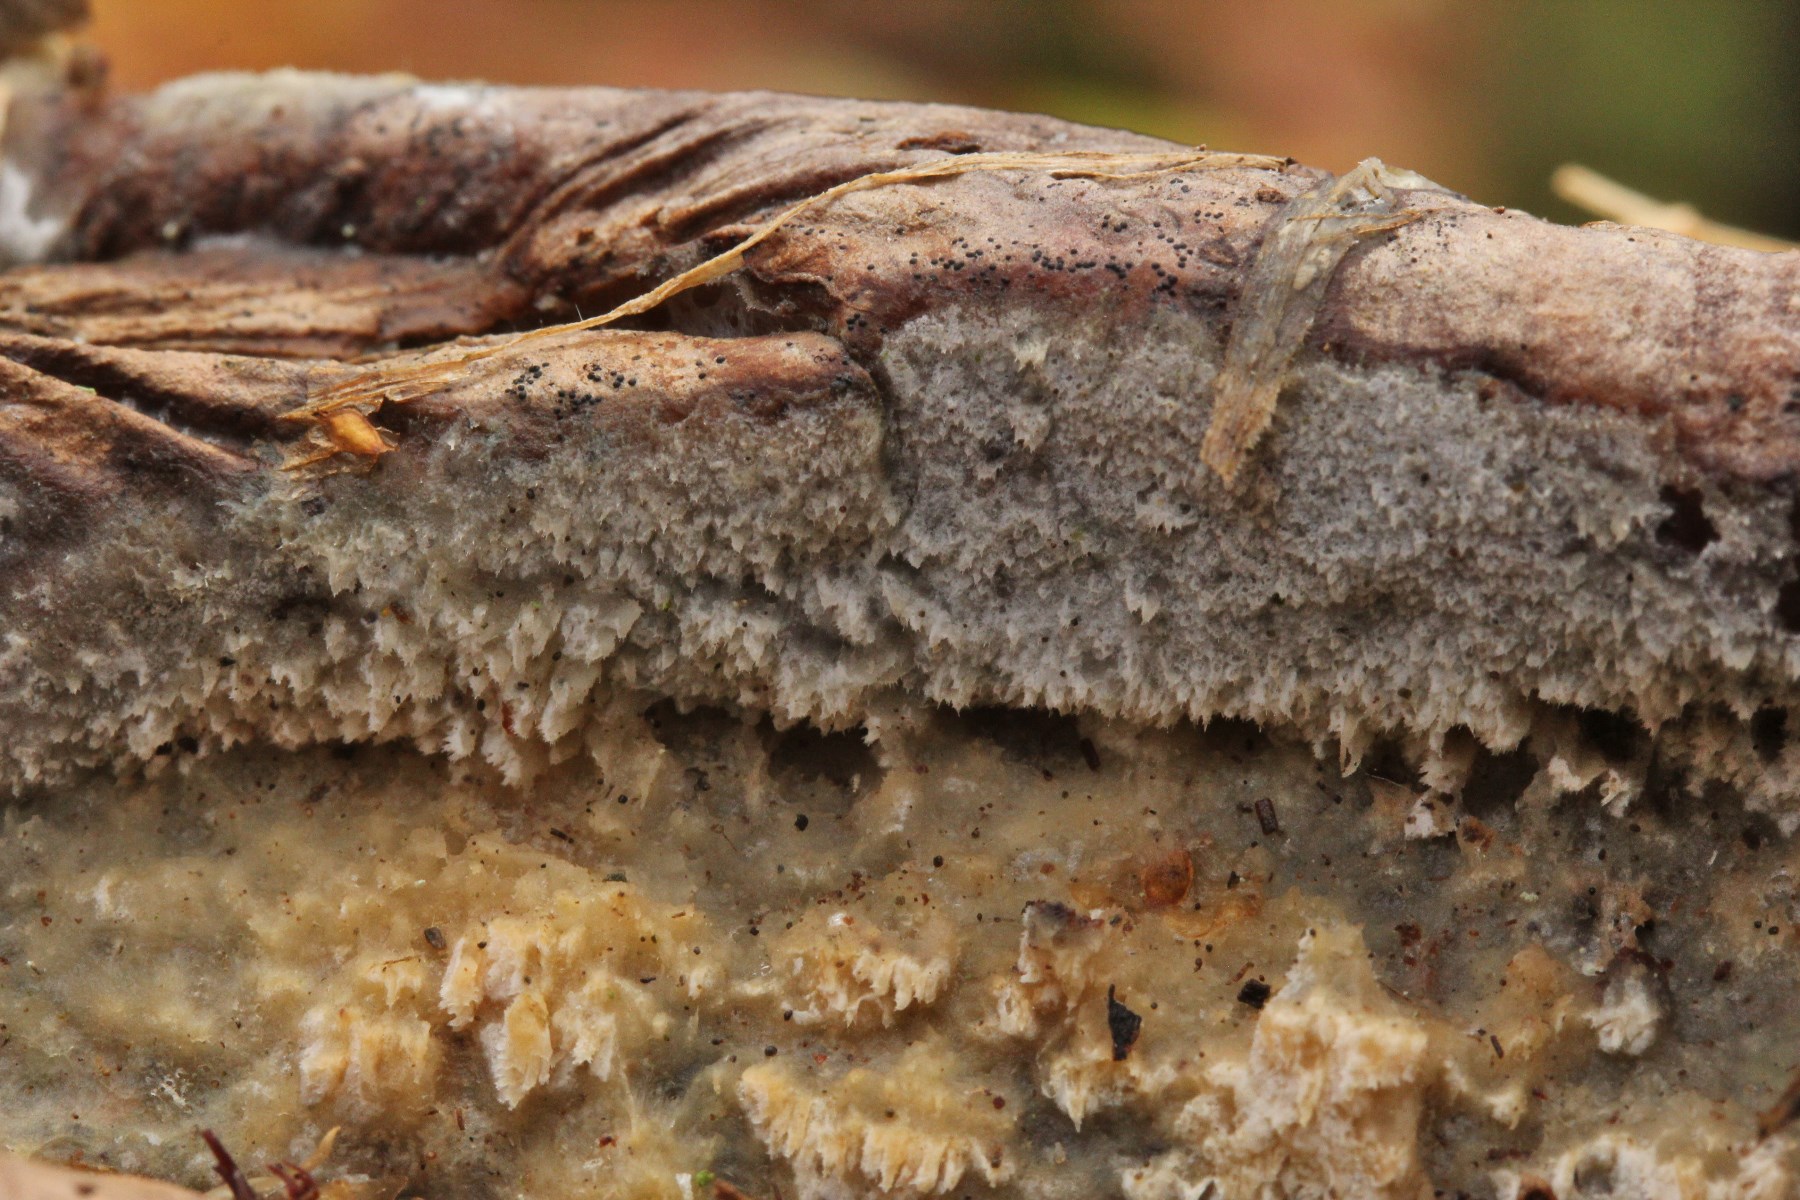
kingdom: Fungi
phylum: Basidiomycota
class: Agaricomycetes
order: Corticiales
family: Corticiaceae
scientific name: Corticiaceae
